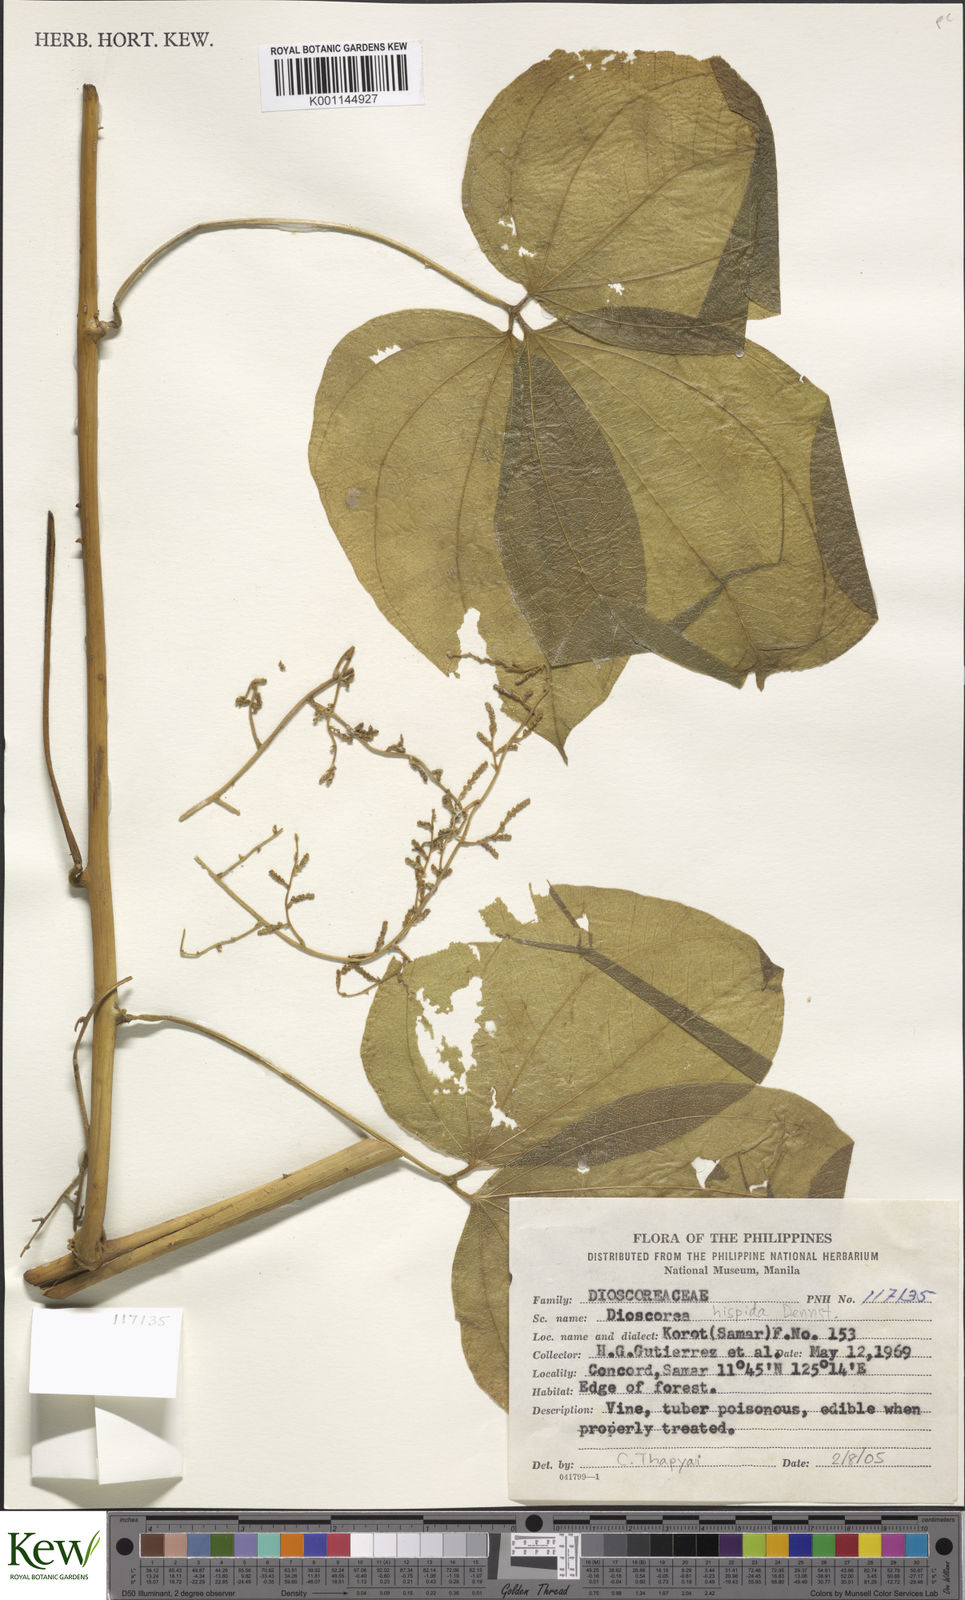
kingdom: Plantae
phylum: Tracheophyta
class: Liliopsida
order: Dioscoreales
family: Dioscoreaceae
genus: Dioscorea
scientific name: Dioscorea
